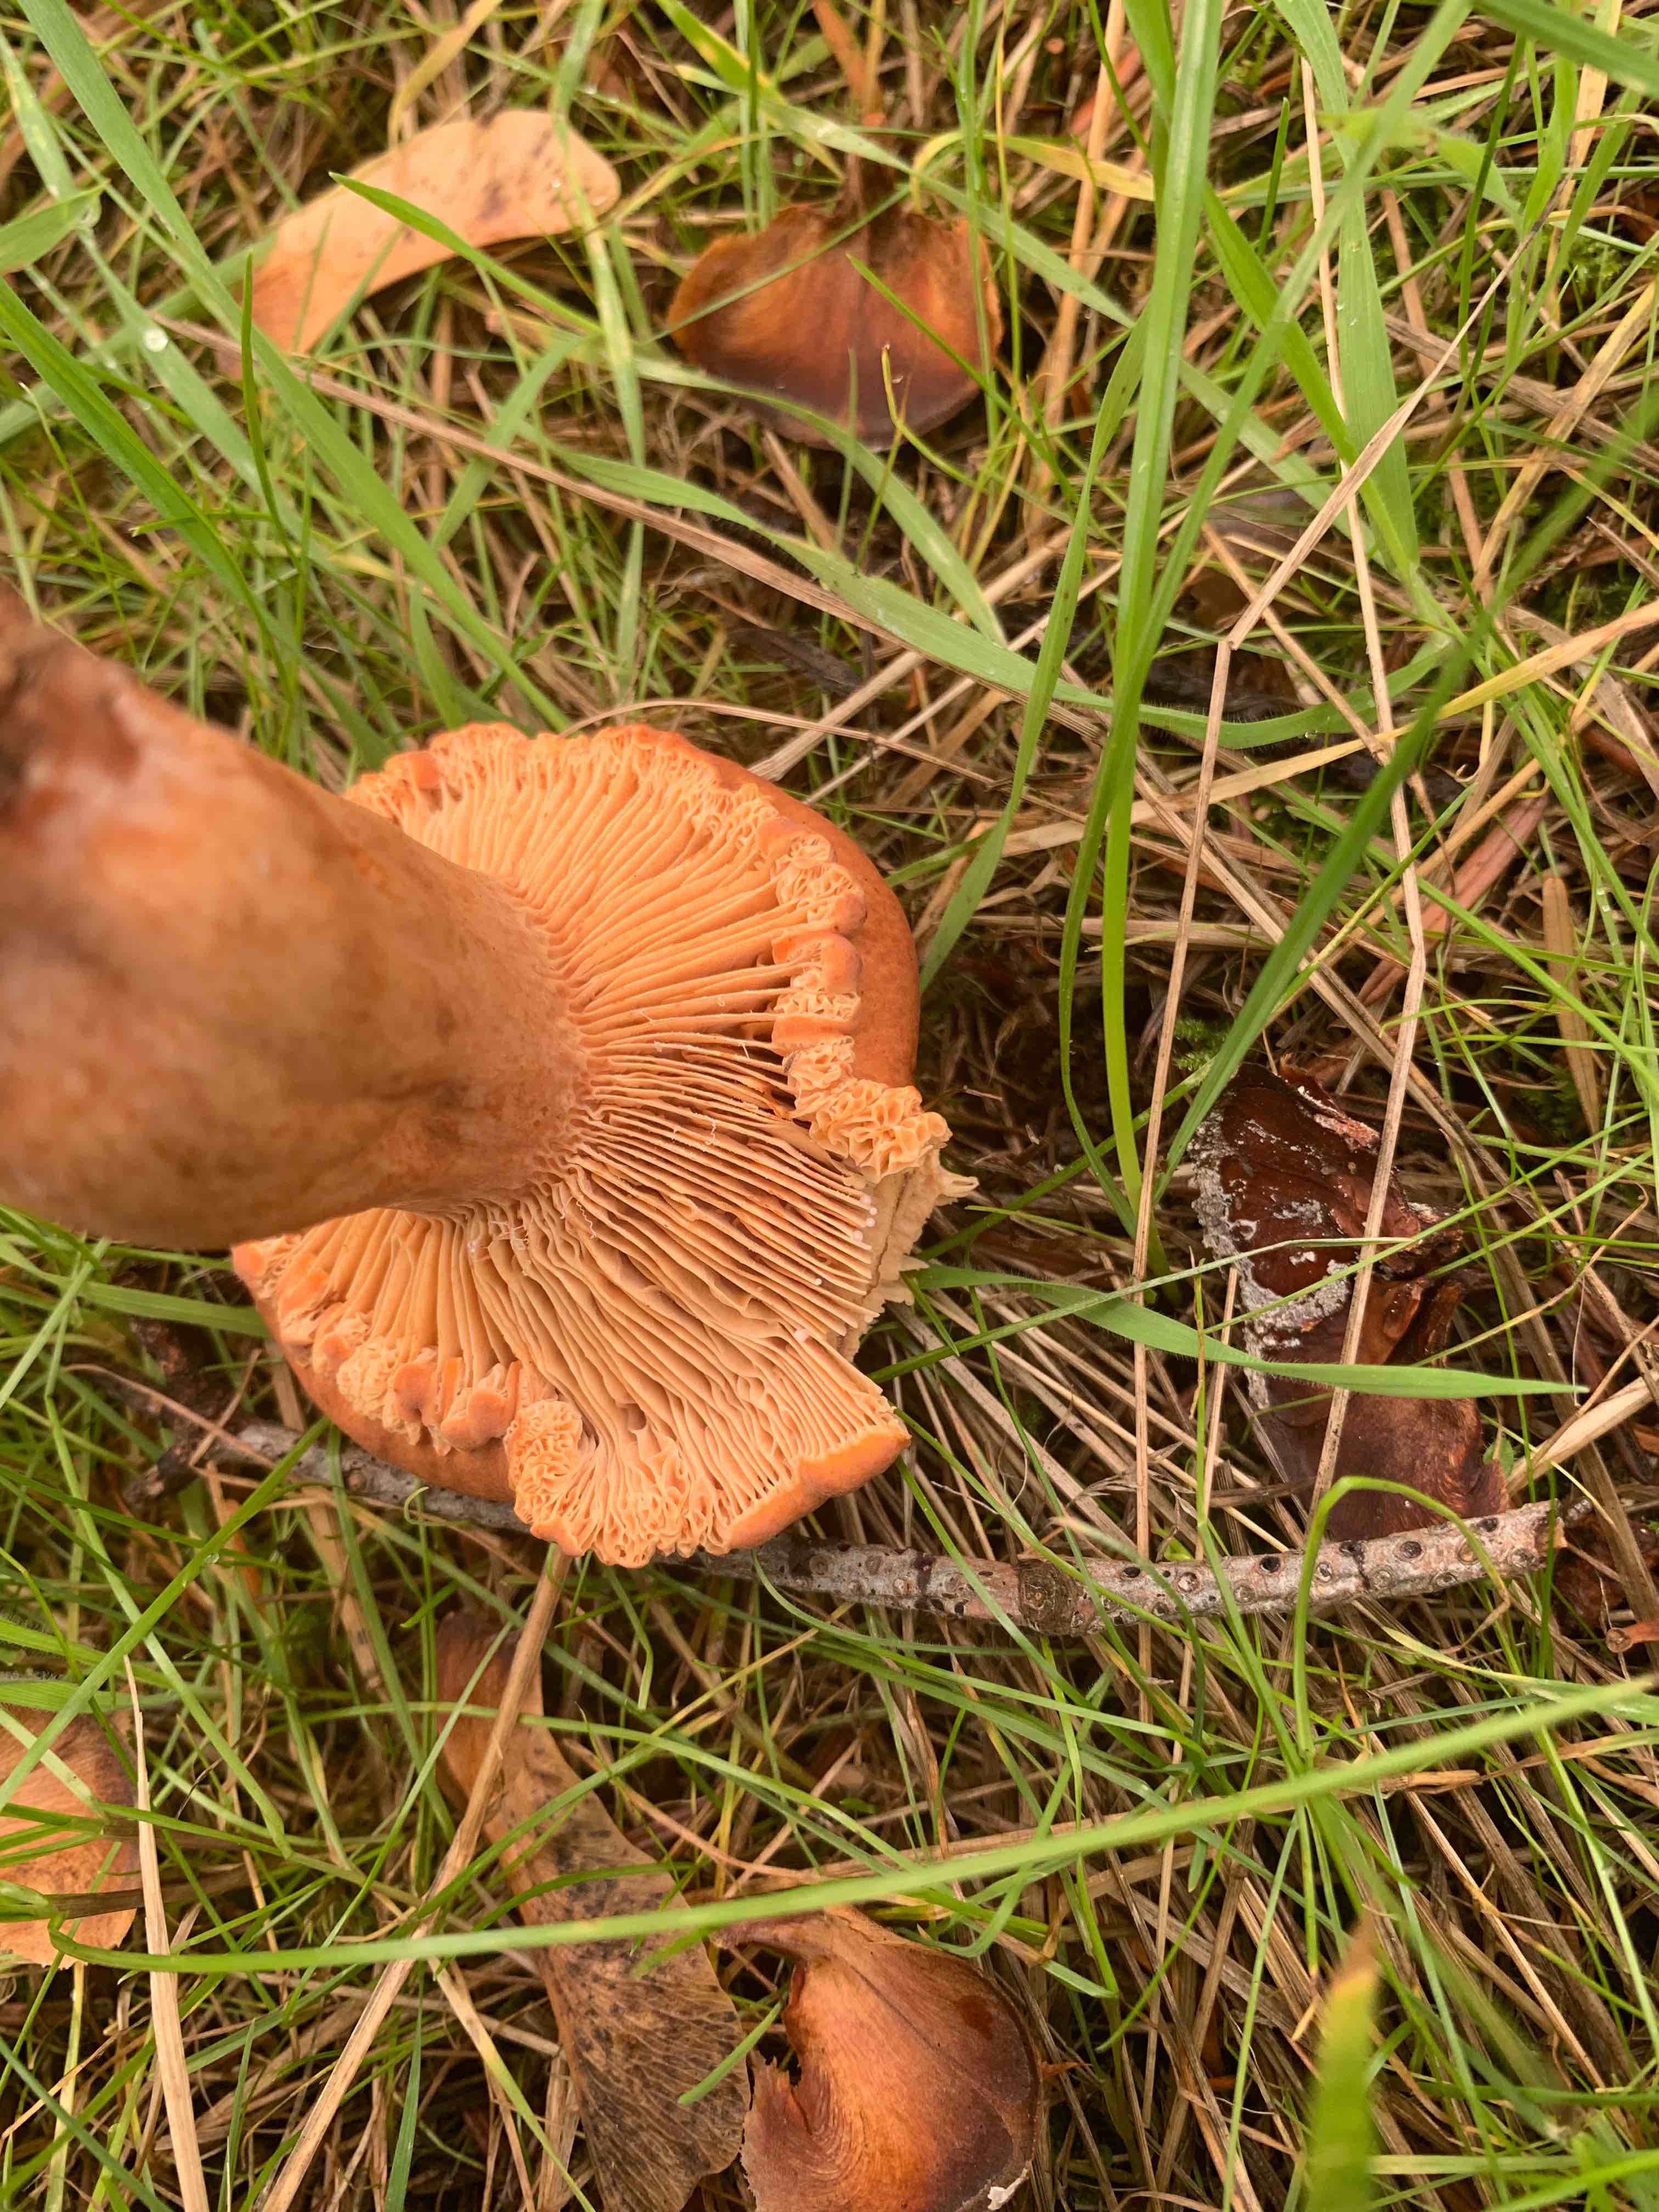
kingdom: Fungi
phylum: Basidiomycota
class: Agaricomycetes
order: Russulales
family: Russulaceae
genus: Lactarius
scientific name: Lactarius fulvissimus
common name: ræve-mælkehat
